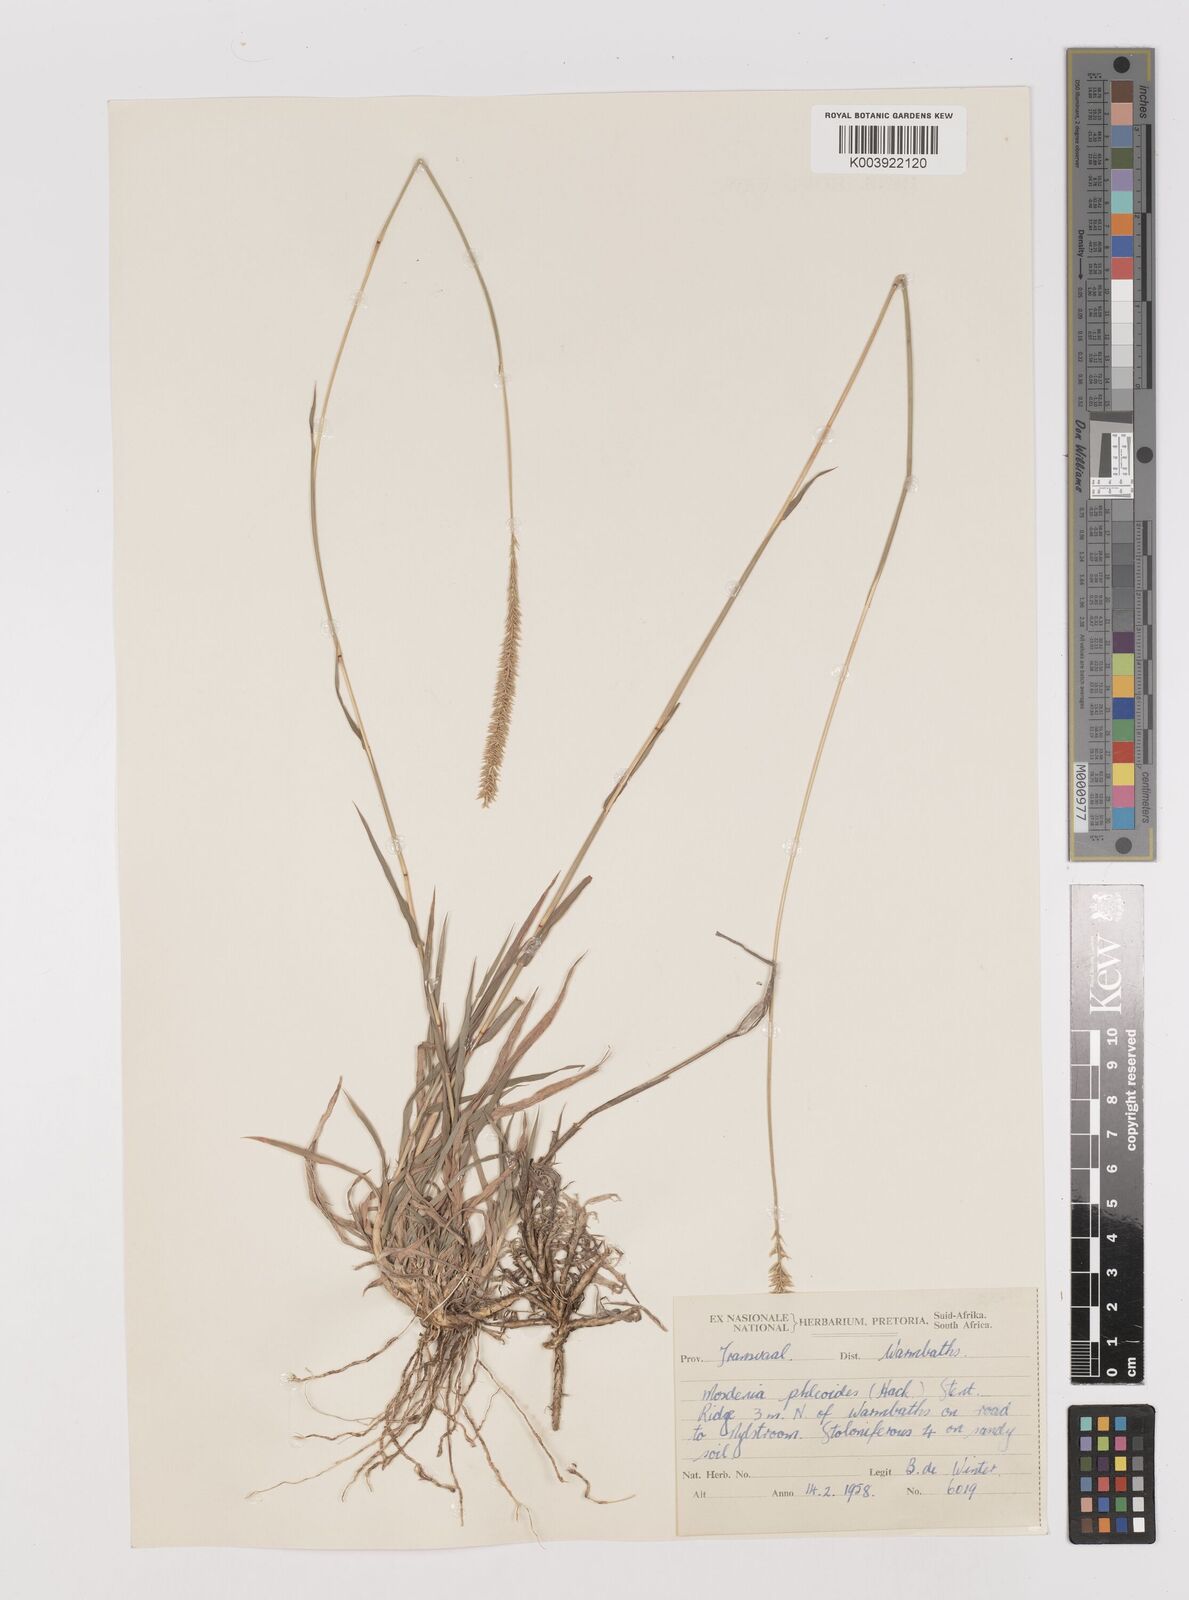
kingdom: Plantae
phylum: Tracheophyta
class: Liliopsida
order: Poales
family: Poaceae
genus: Mosdenia
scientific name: Mosdenia leptostachys
